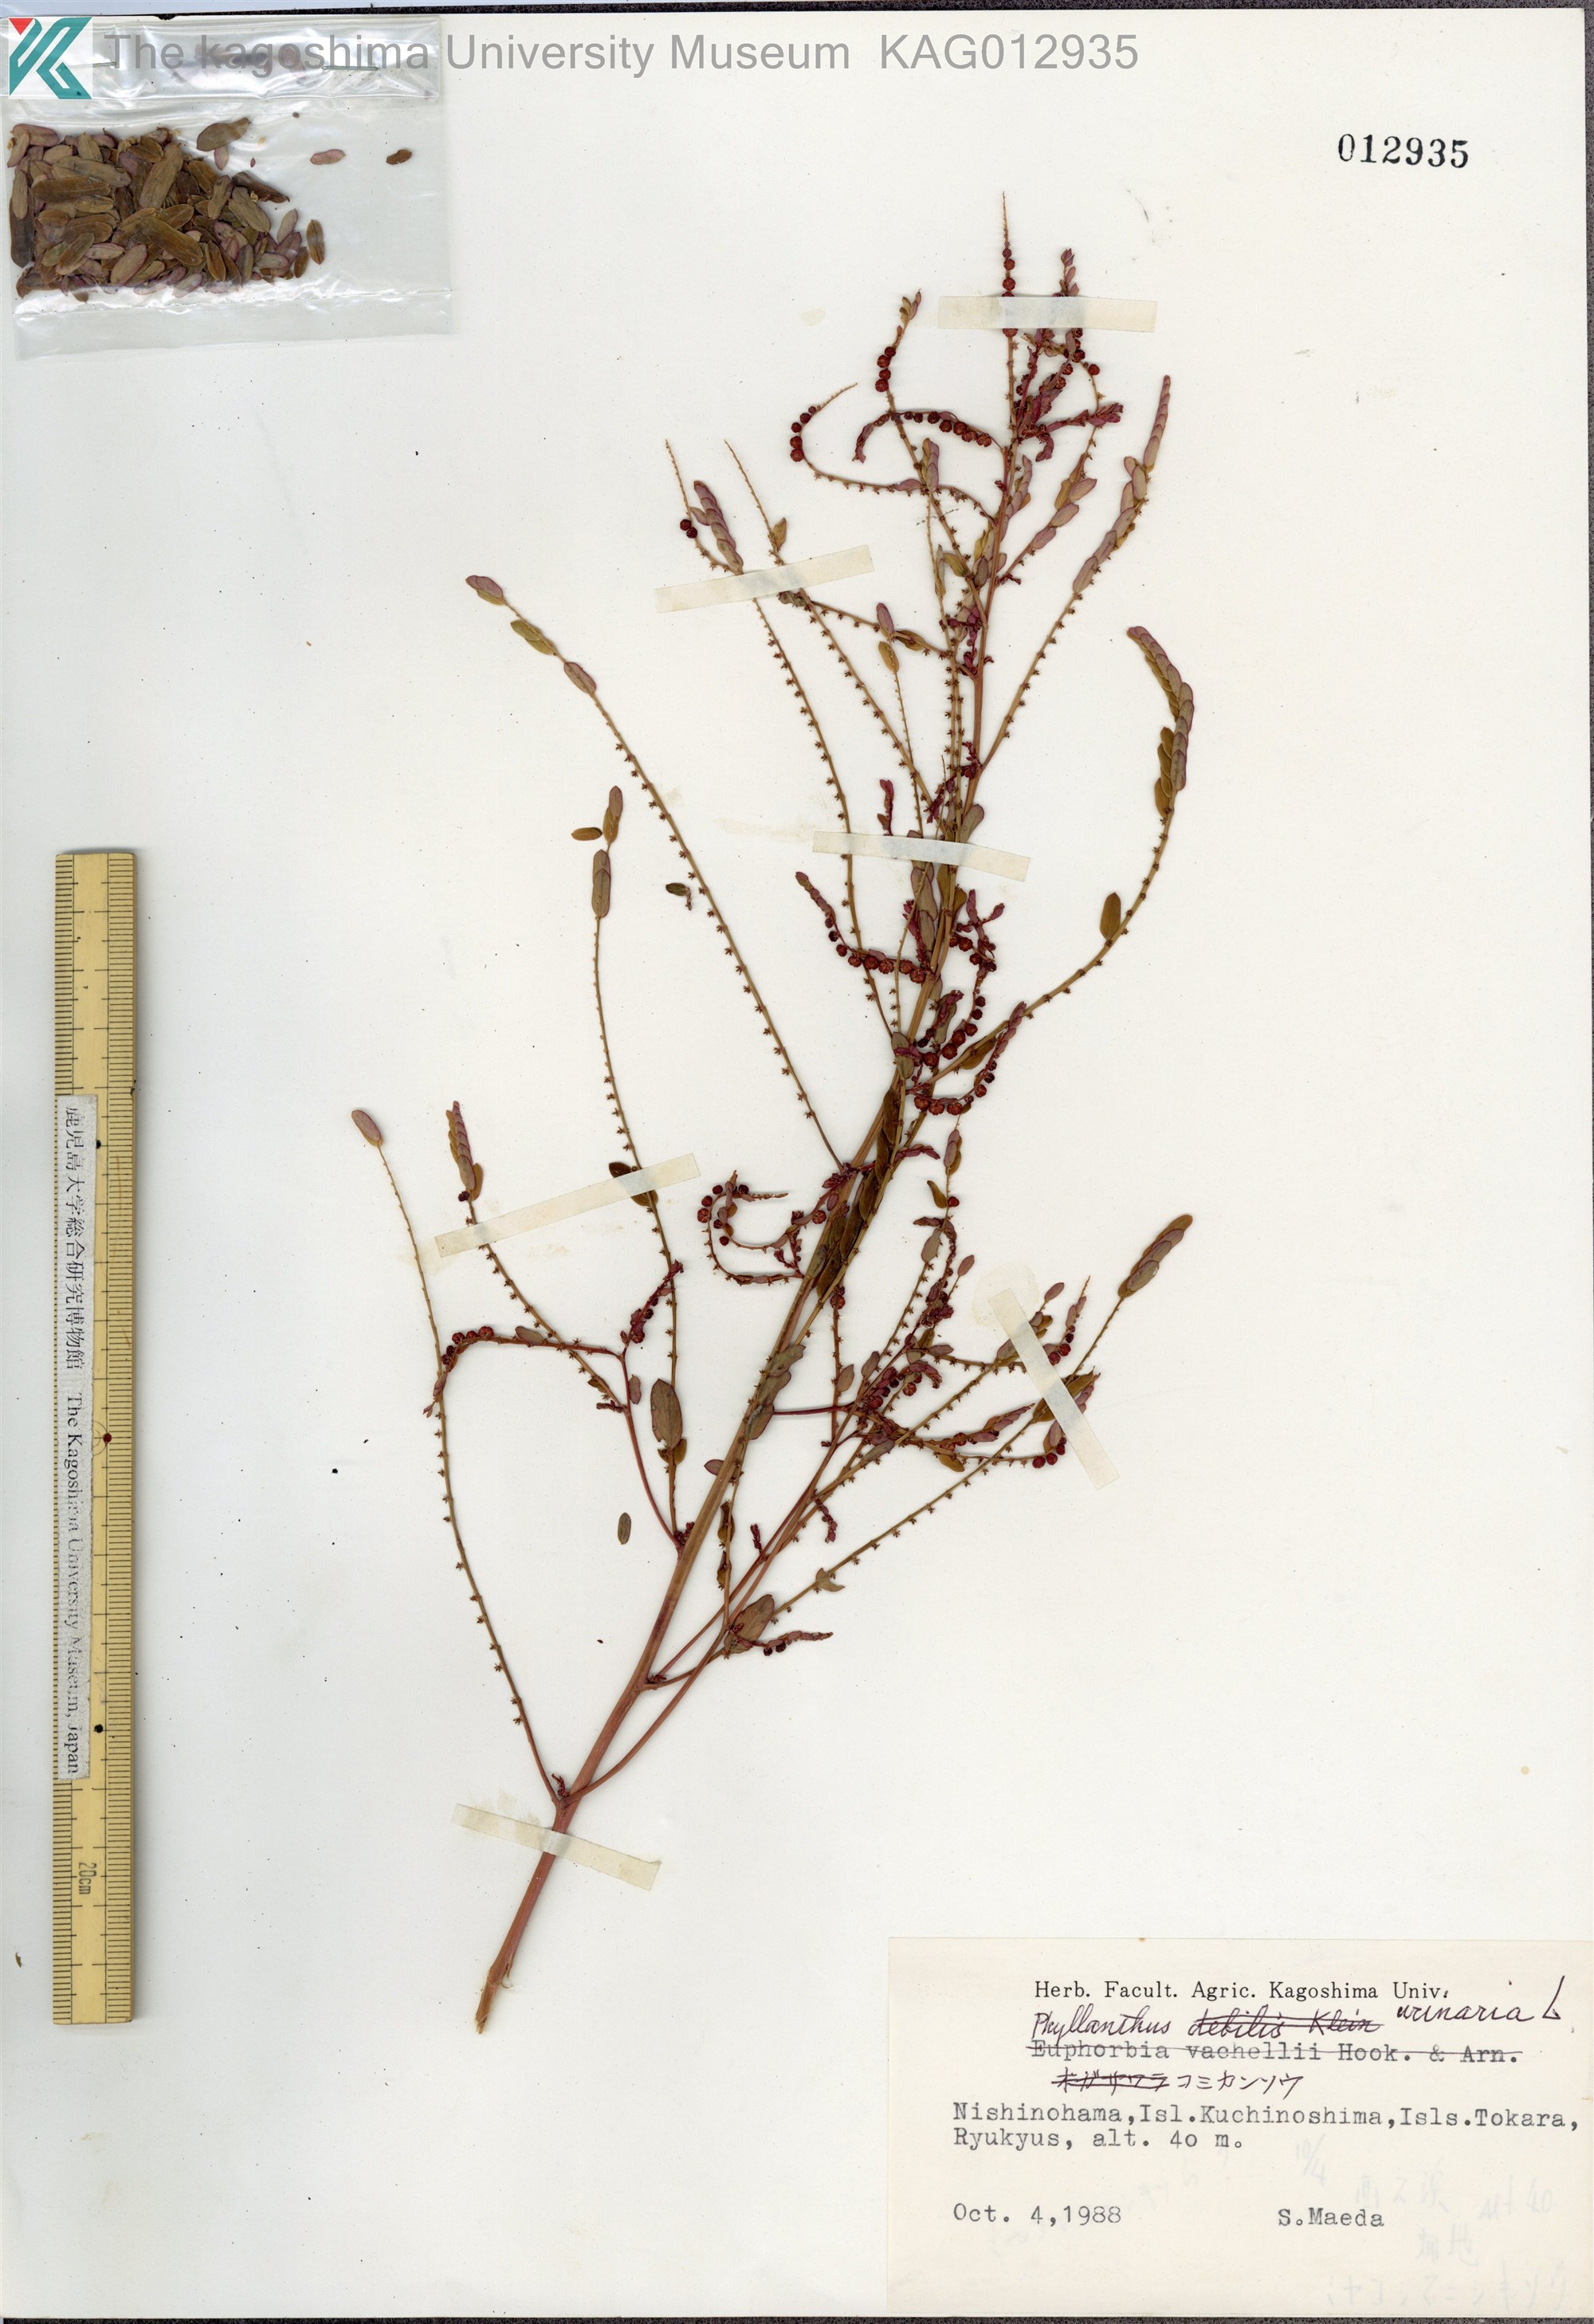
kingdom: Plantae
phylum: Tracheophyta
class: Magnoliopsida
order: Malpighiales
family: Phyllanthaceae
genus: Phyllanthus
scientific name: Phyllanthus urinaria
